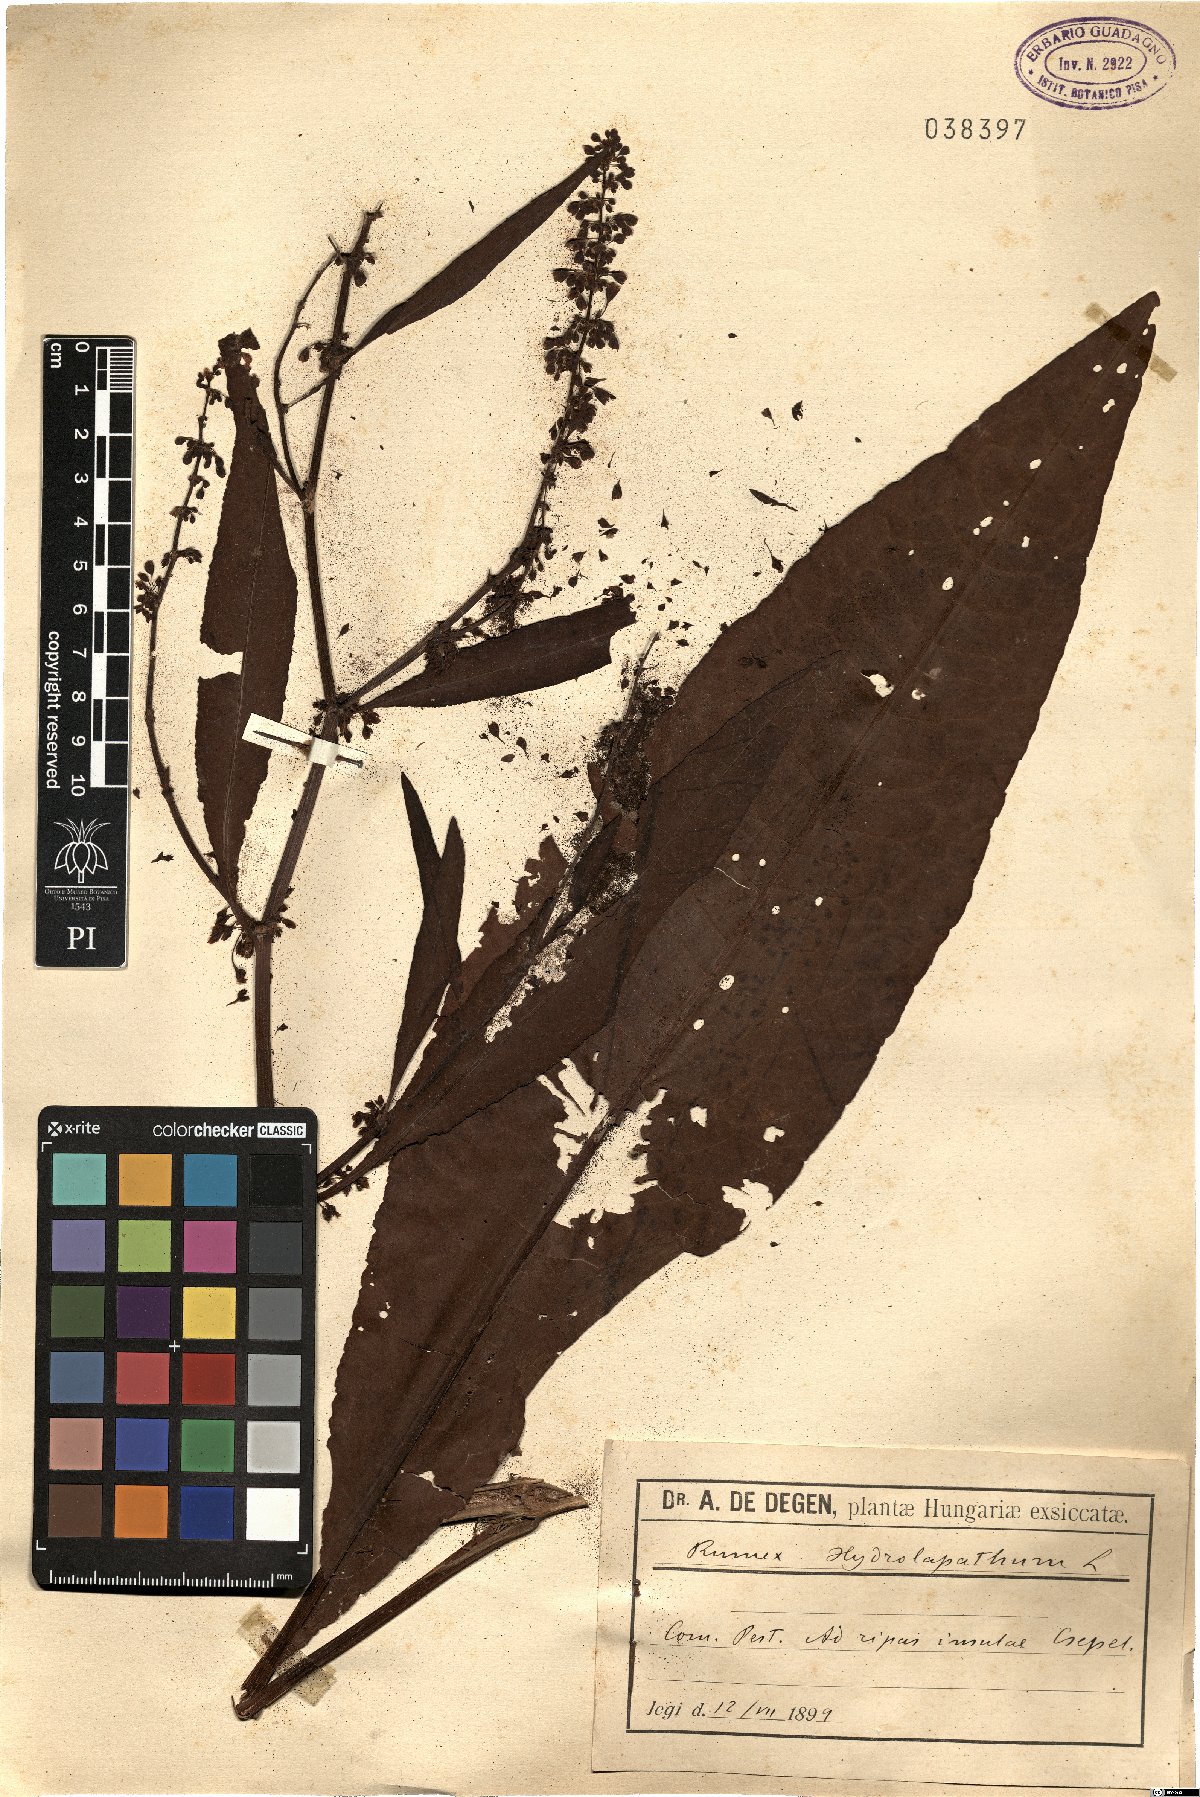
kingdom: Plantae
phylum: Tracheophyta
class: Magnoliopsida
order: Caryophyllales
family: Polygonaceae
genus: Rumex
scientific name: Rumex hydrolapathum
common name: Water dock
